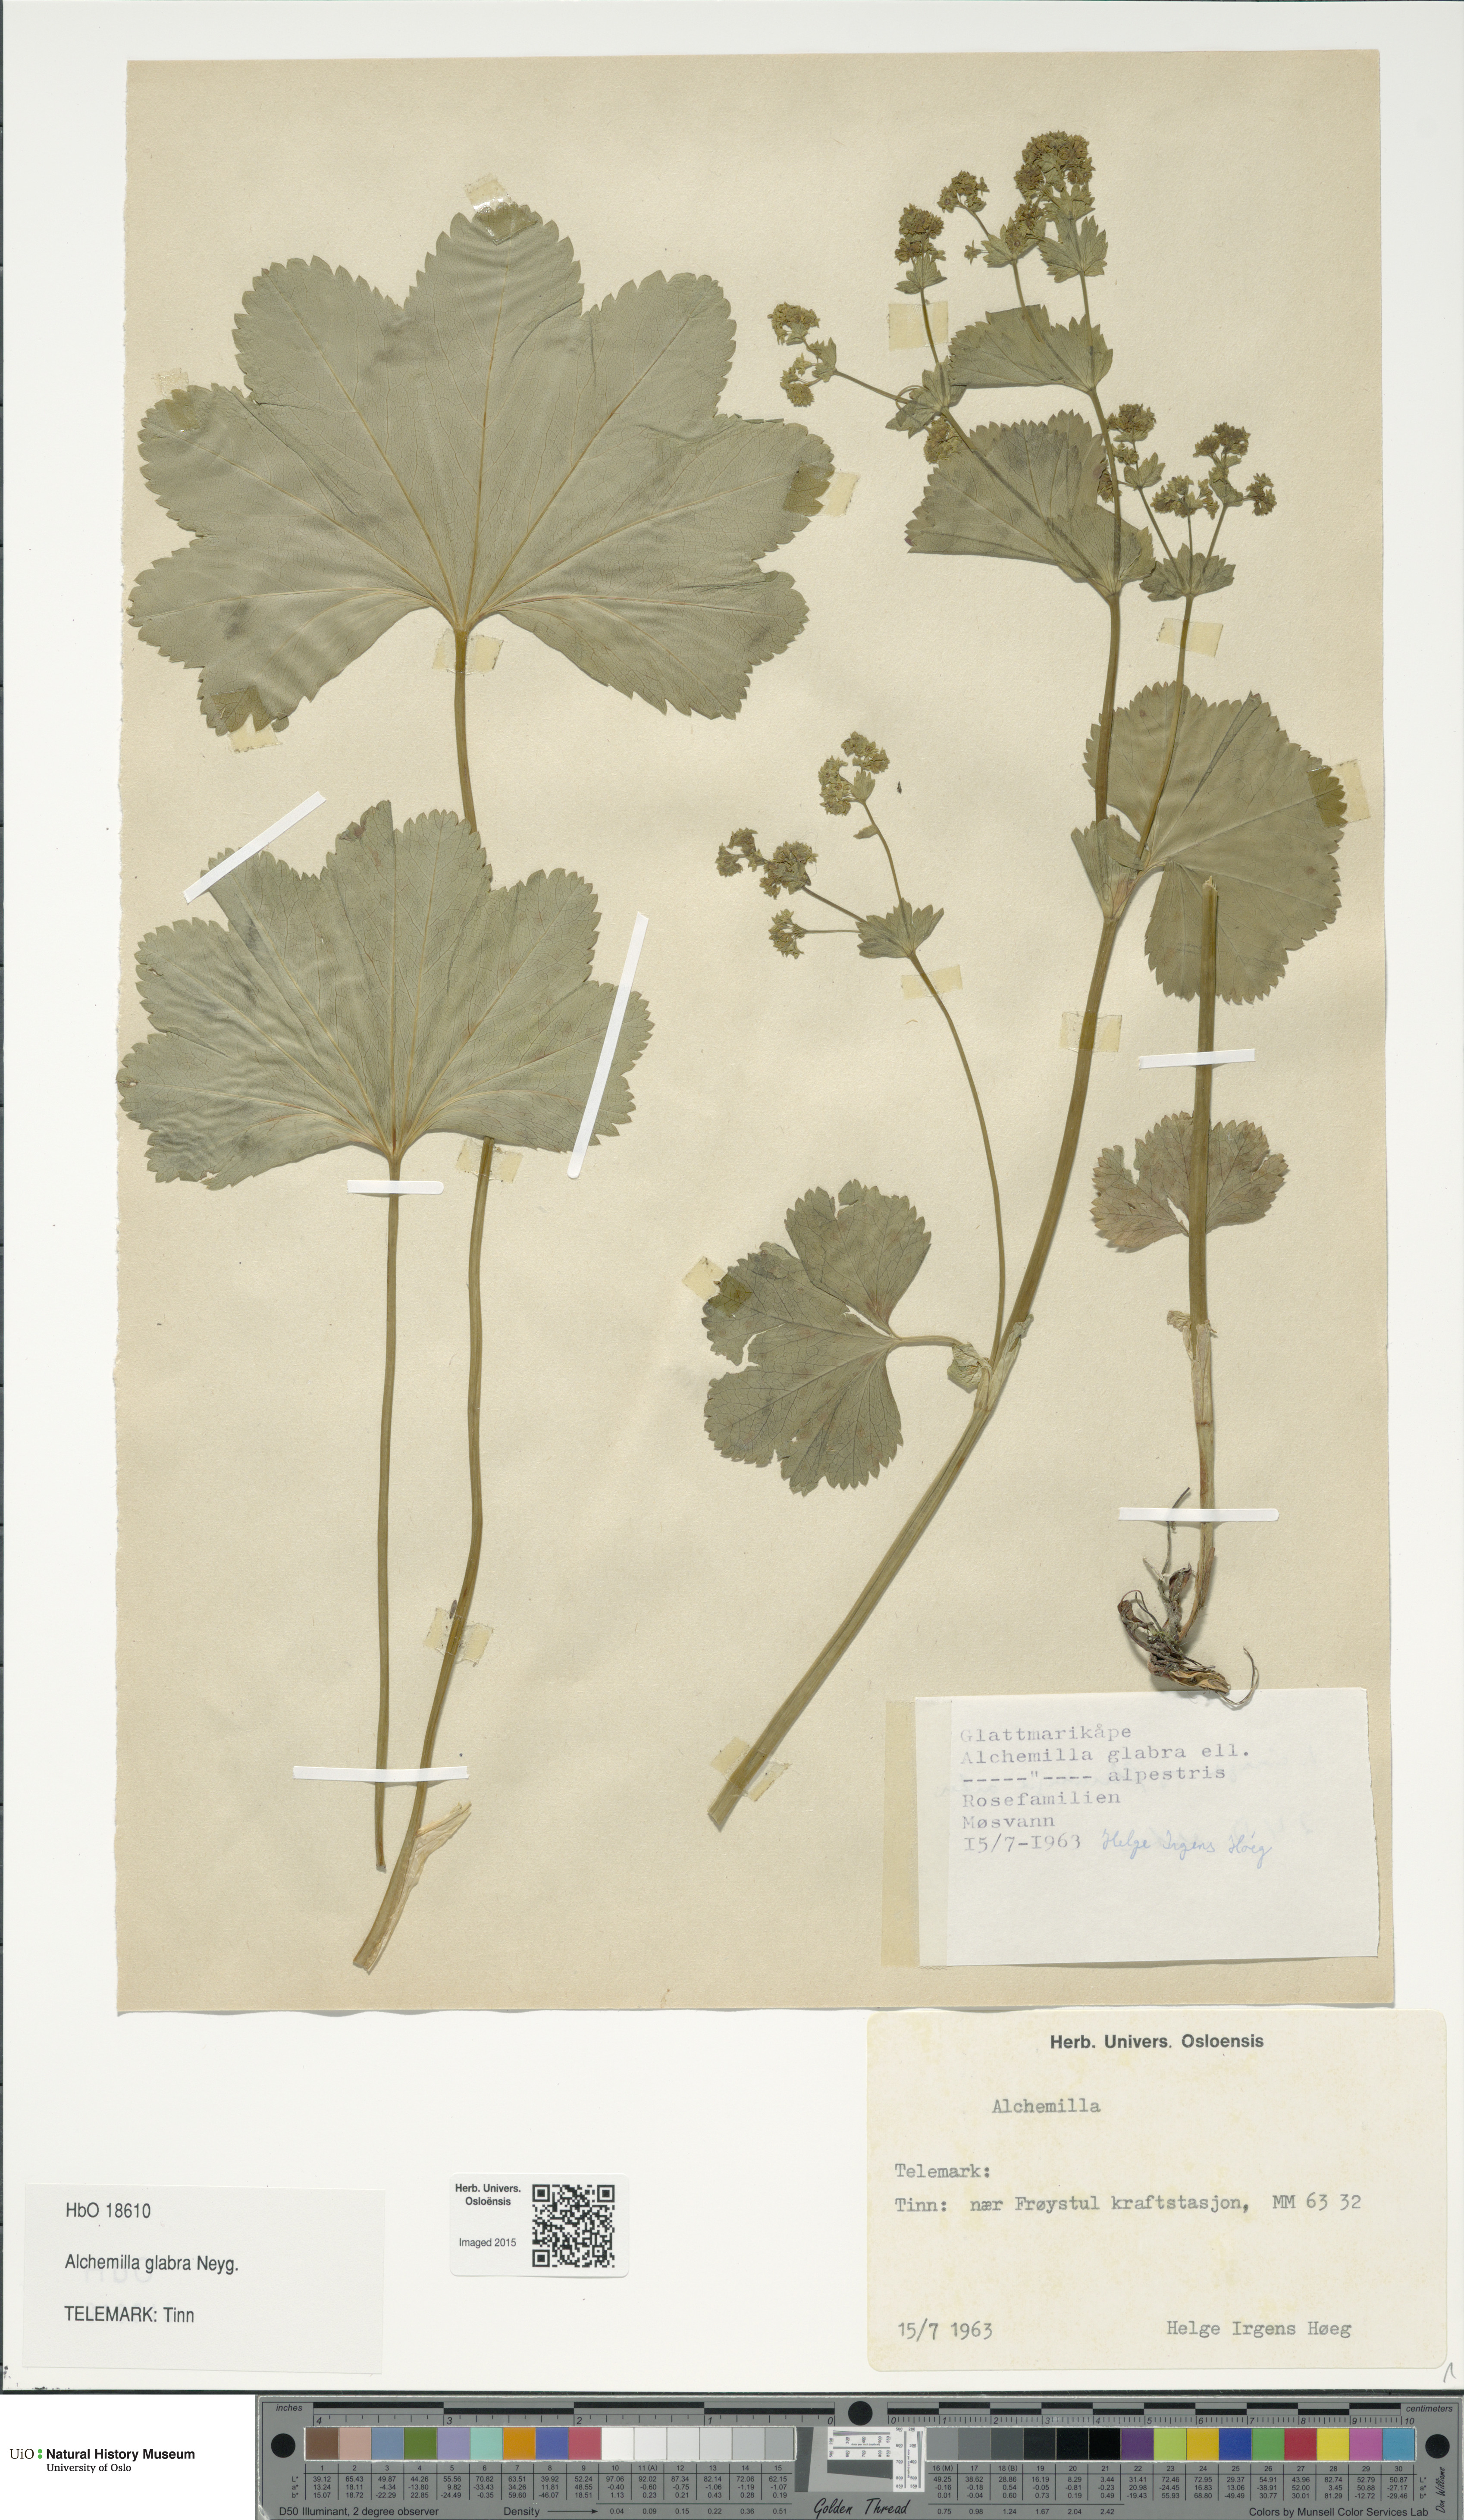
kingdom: Plantae
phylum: Tracheophyta
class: Magnoliopsida
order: Rosales
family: Rosaceae
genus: Alchemilla
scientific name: Alchemilla glabra
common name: Smooth lady's-mantle
